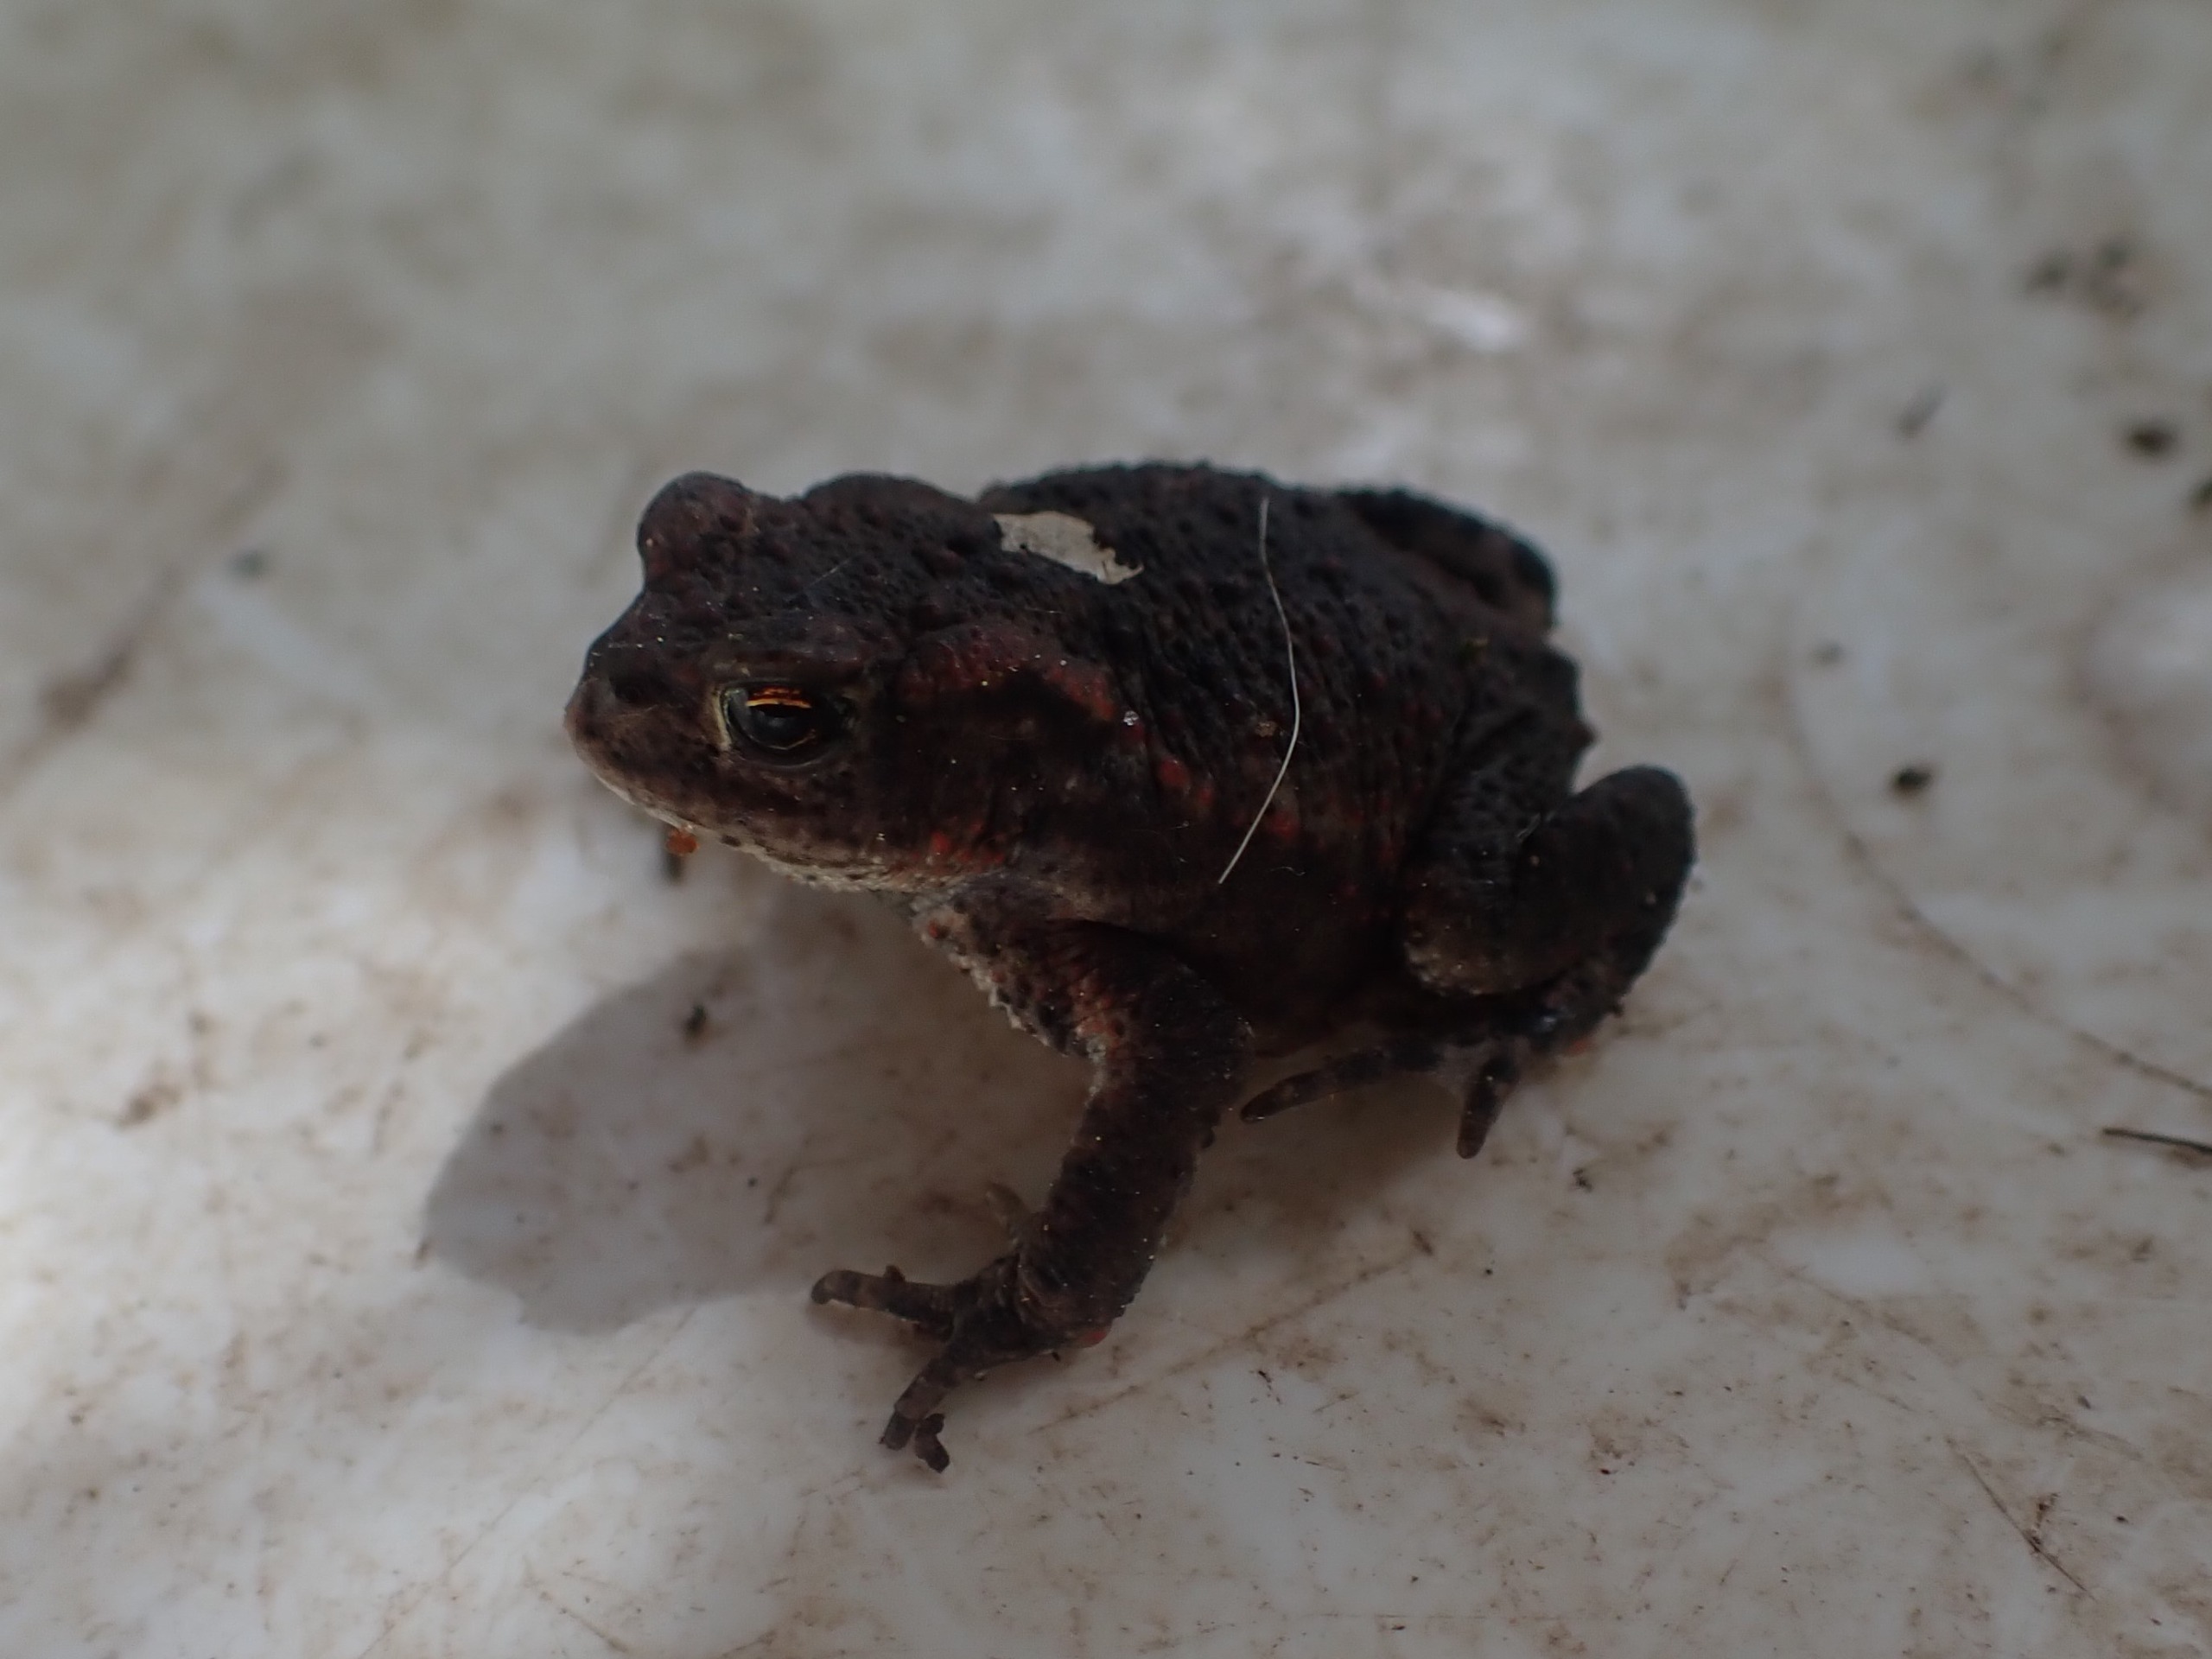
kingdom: Animalia
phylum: Chordata
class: Amphibia
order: Anura
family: Bufonidae
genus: Bufo
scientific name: Bufo bufo
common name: Skrubtudse
